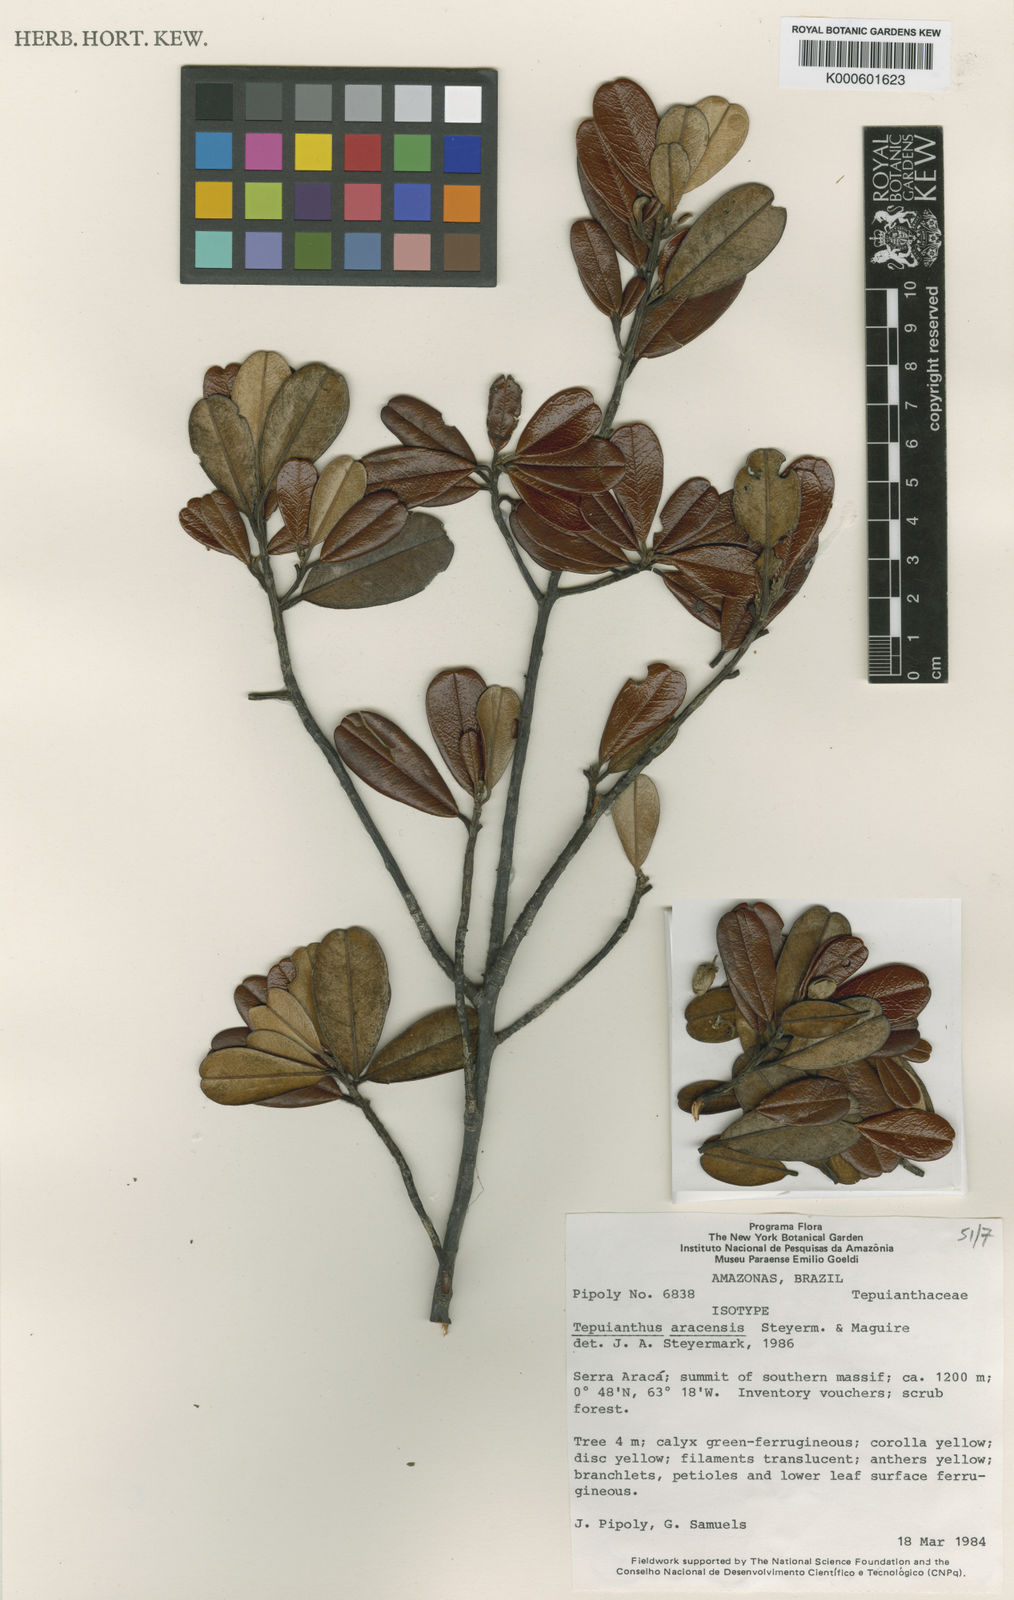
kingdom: Plantae
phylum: Tracheophyta
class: Magnoliopsida
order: Malvales
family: Thymelaeaceae
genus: Tepuianthus
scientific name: Tepuianthus aracensis
